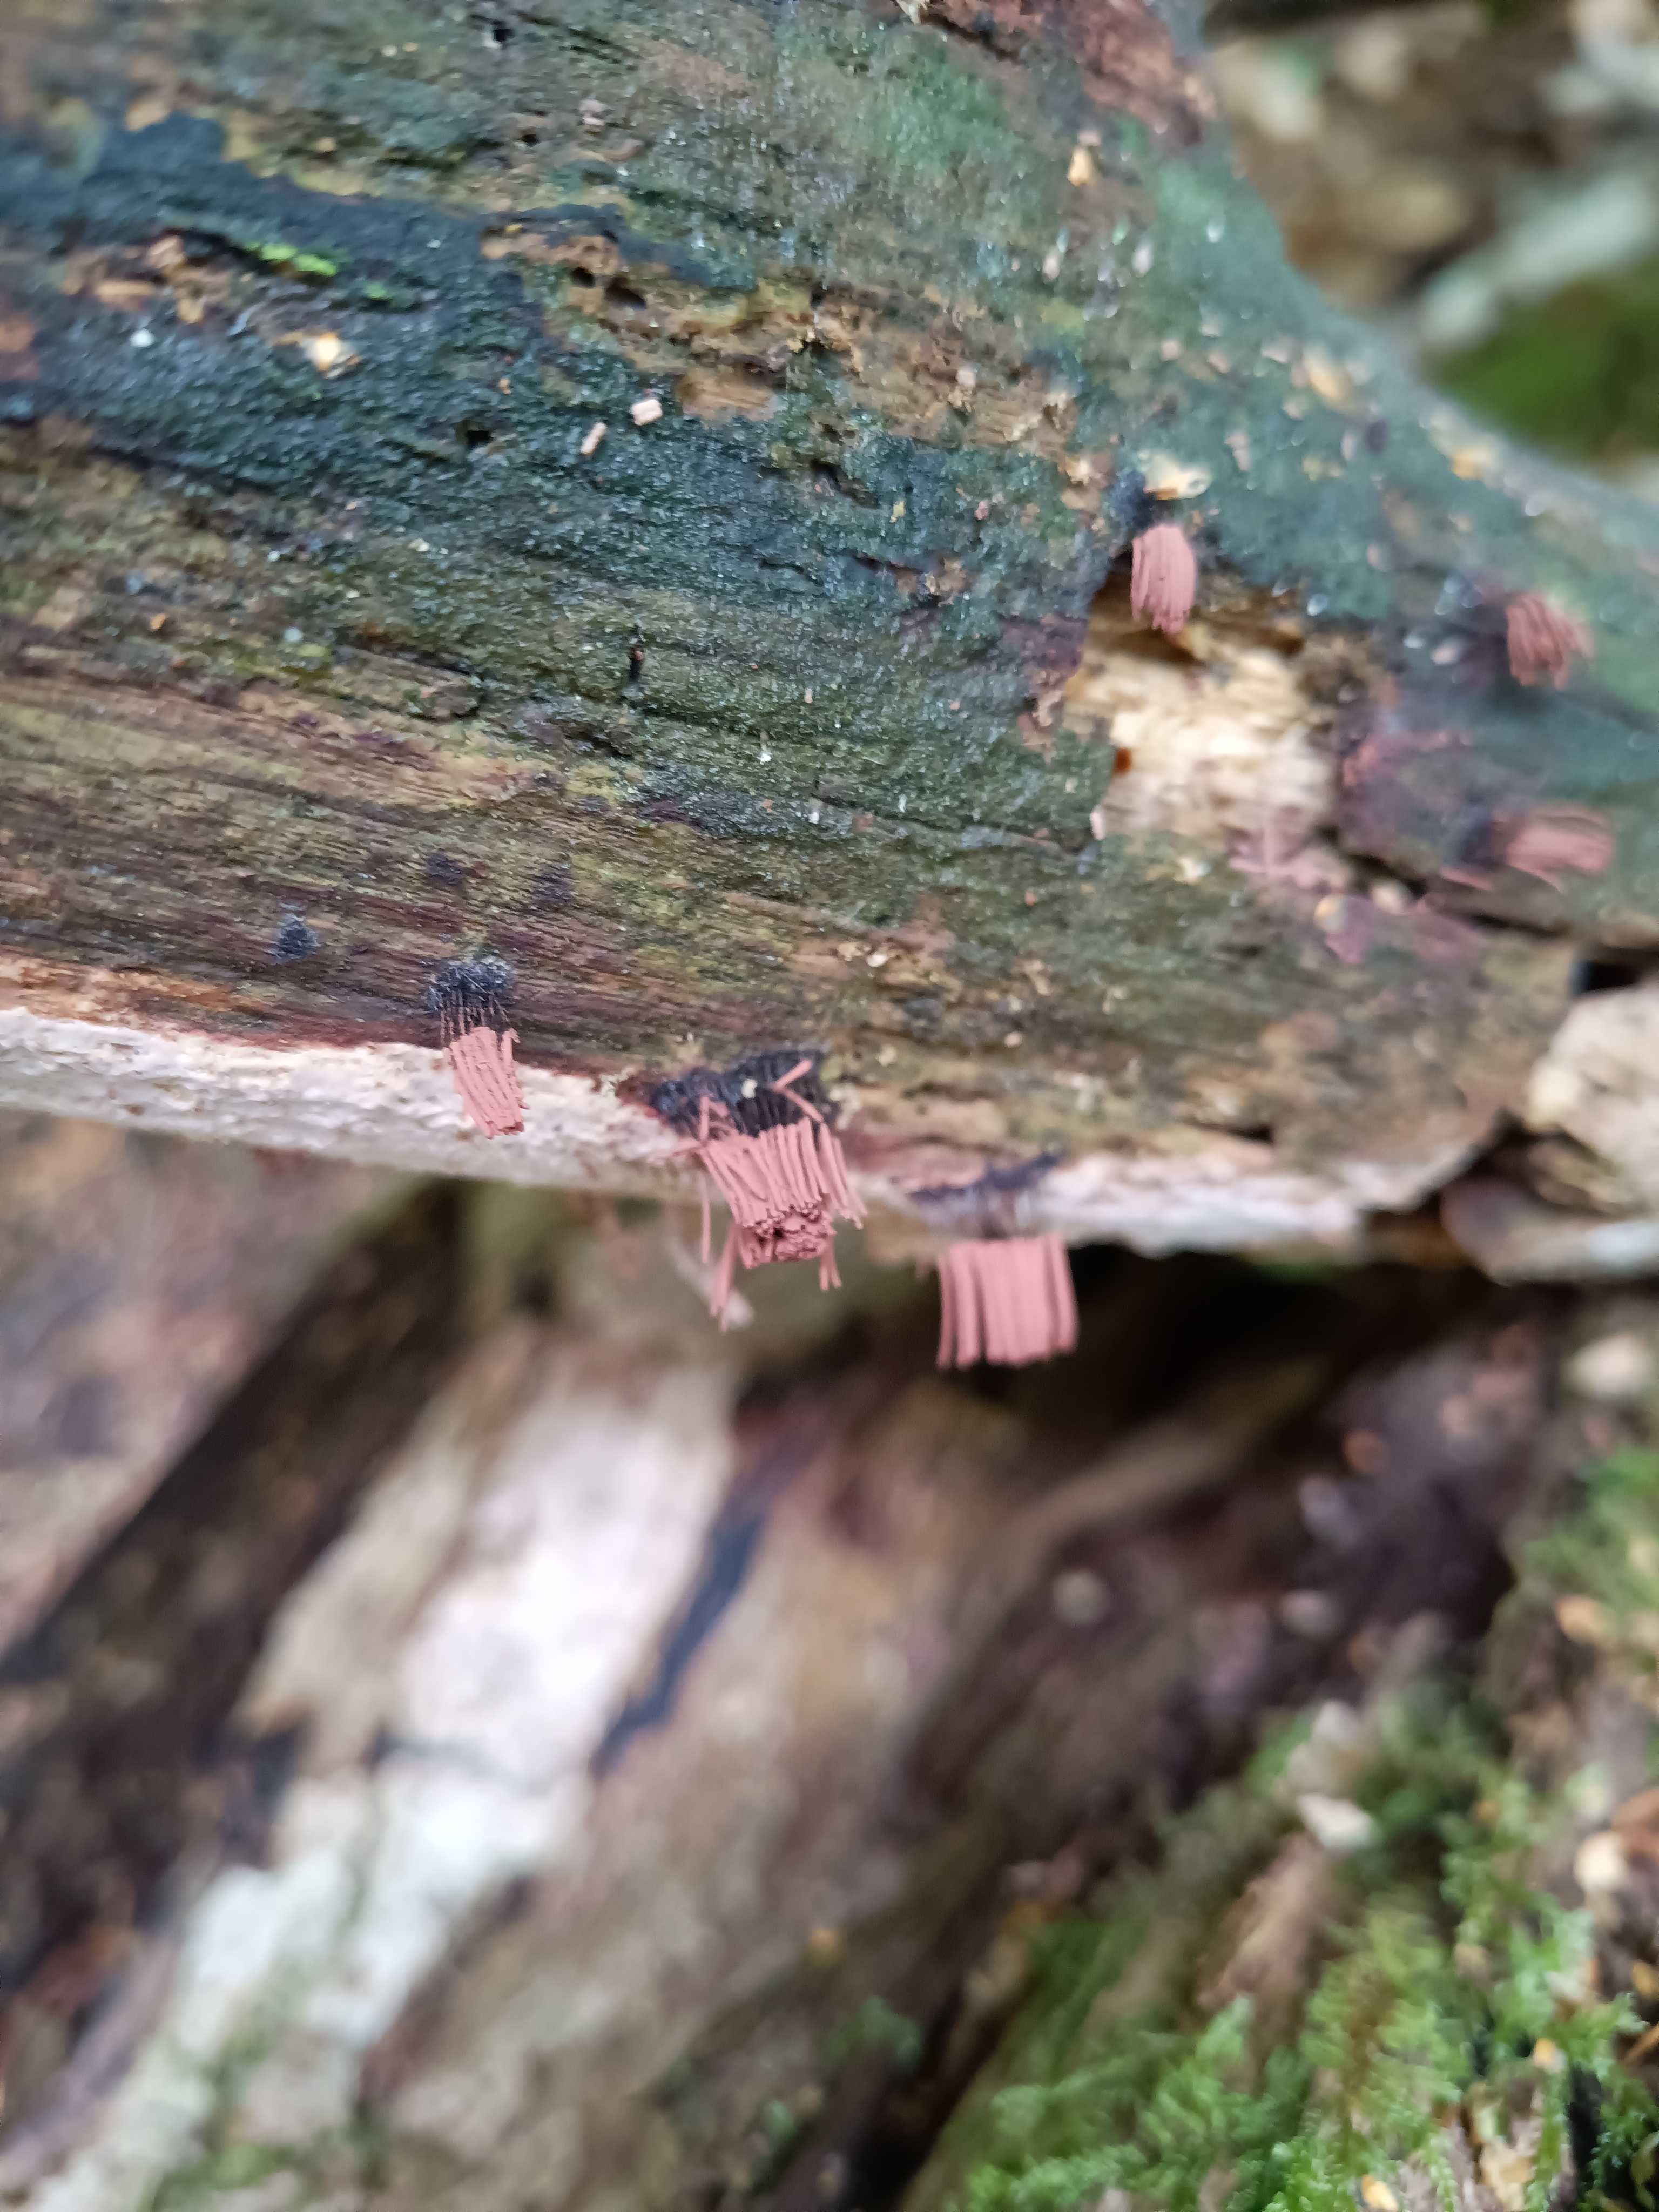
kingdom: Protozoa
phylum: Mycetozoa
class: Myxomycetes
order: Stemonitidales
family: Stemonitidaceae
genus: Stemonitis
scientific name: Stemonitis
